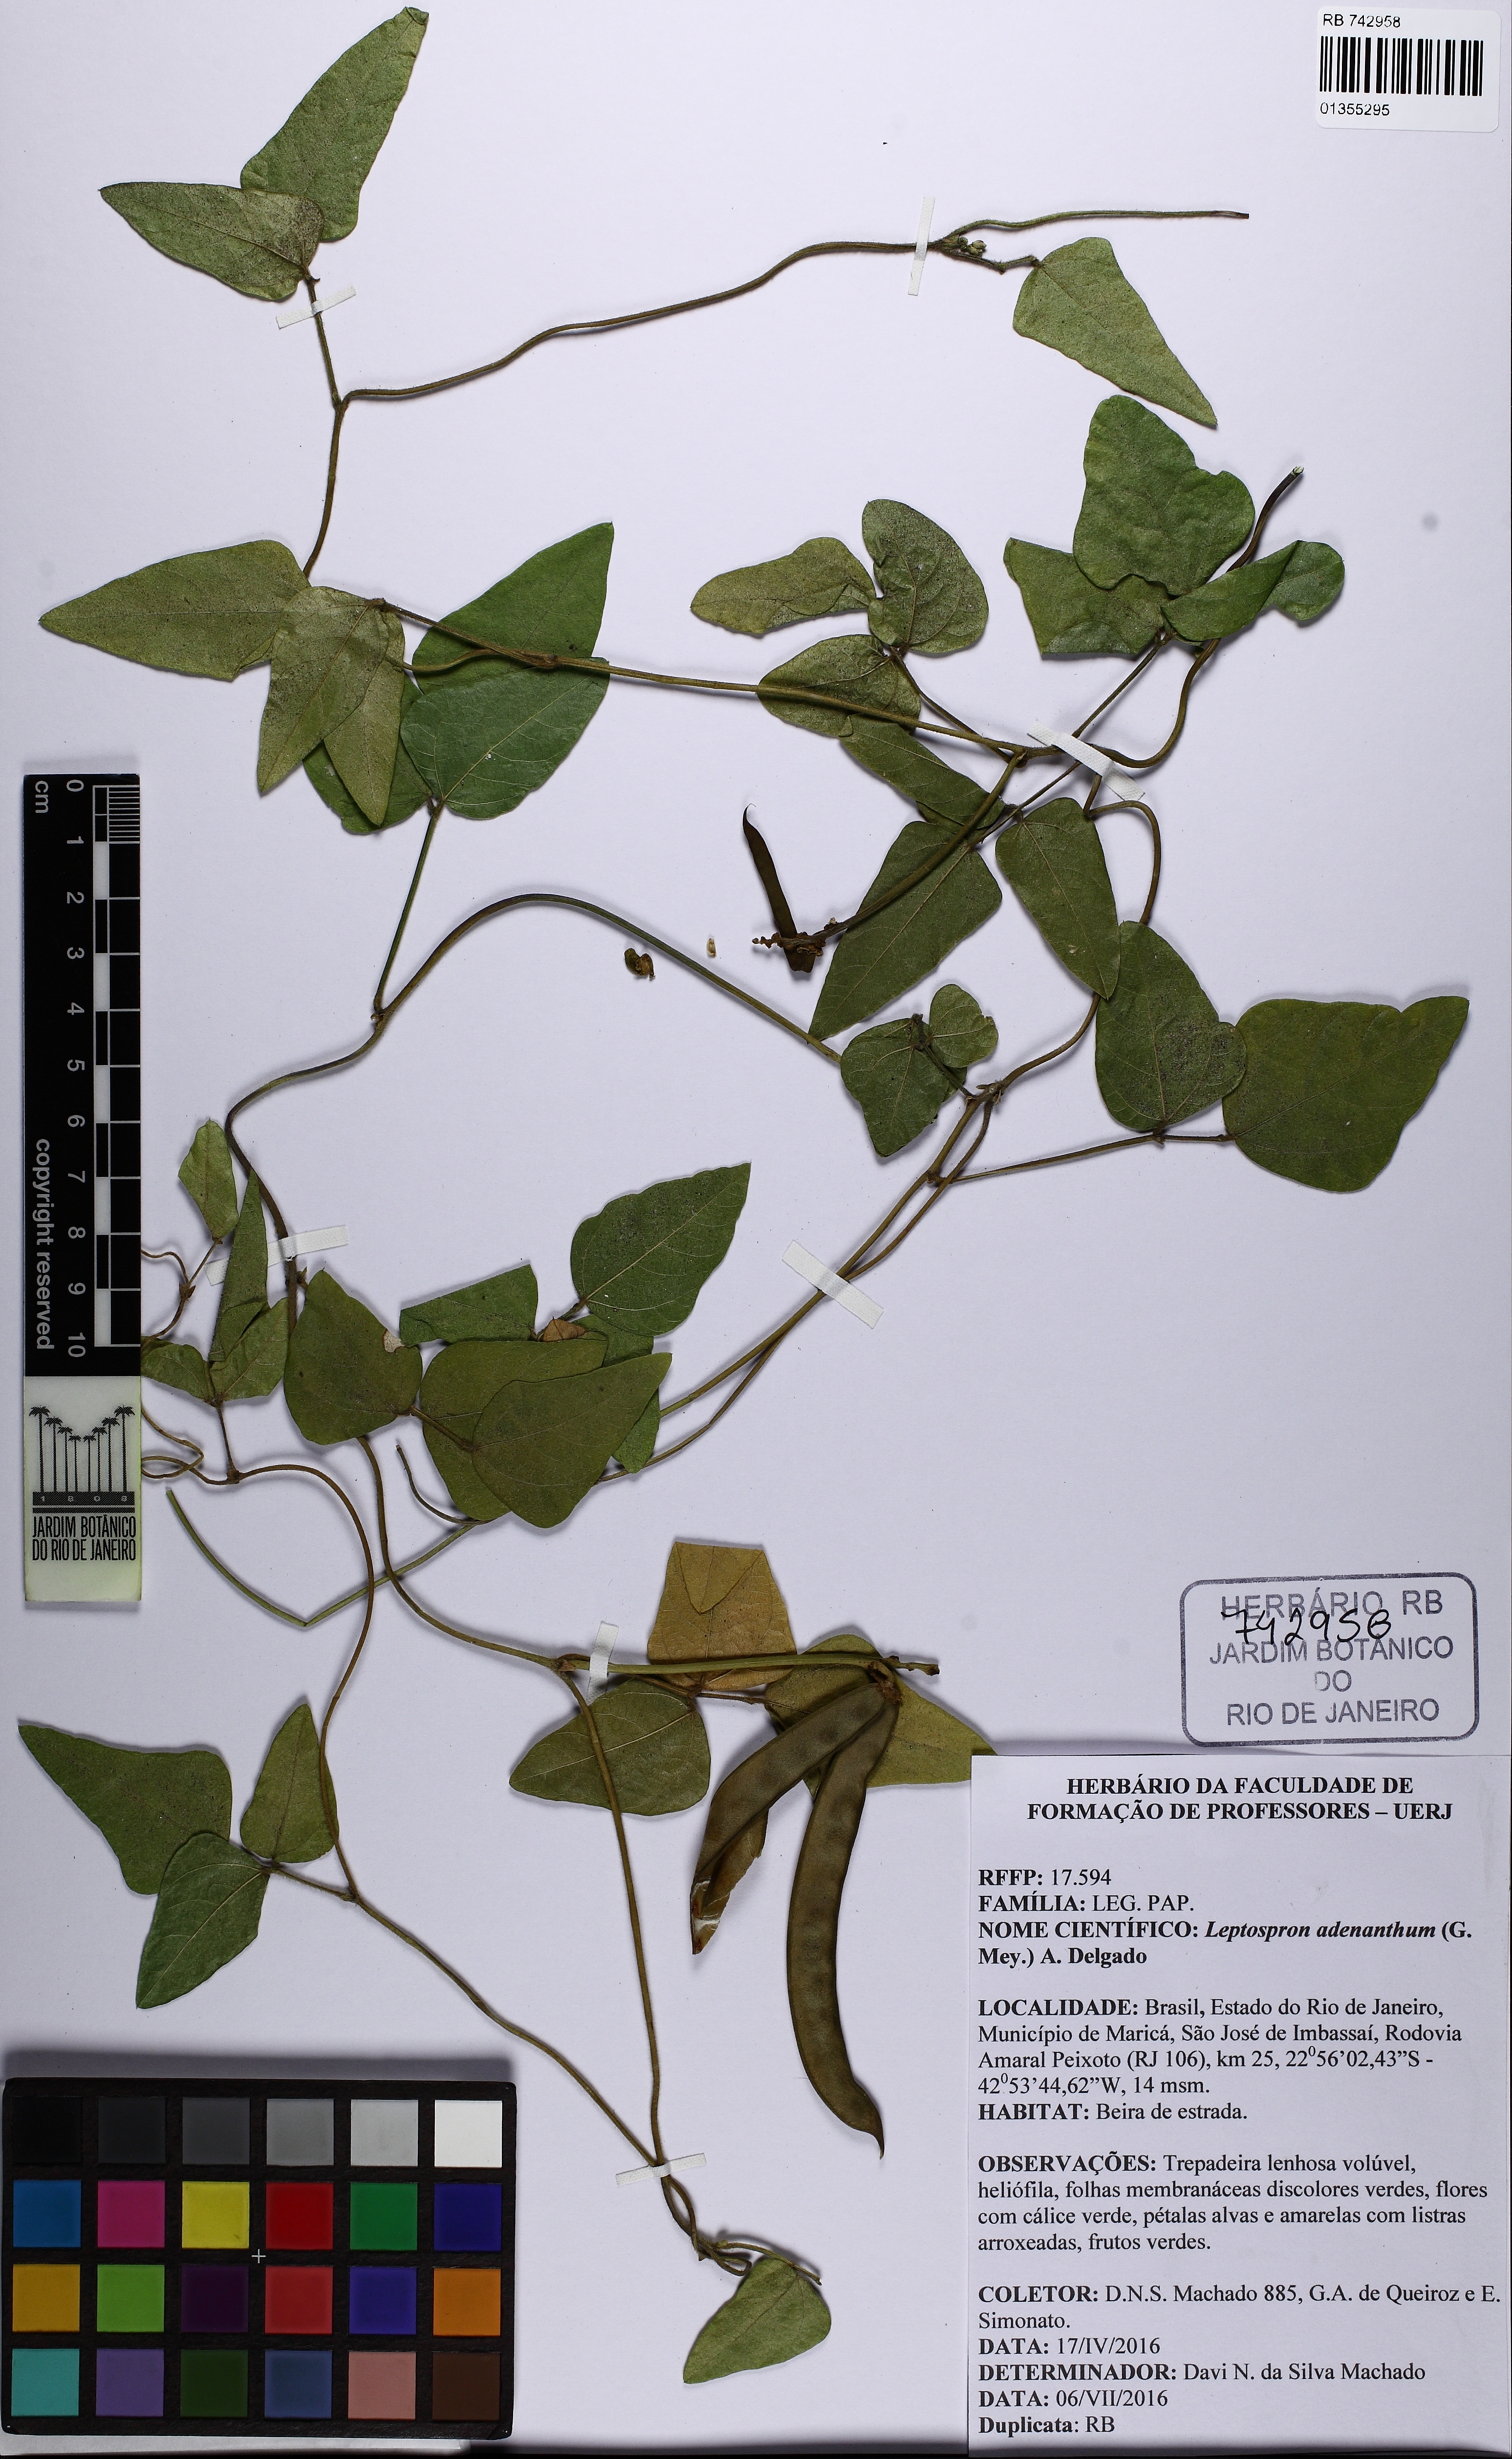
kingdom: Plantae
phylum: Tracheophyta
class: Magnoliopsida
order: Fabales
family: Fabaceae
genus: Leptospron
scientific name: Leptospron adenanthum
